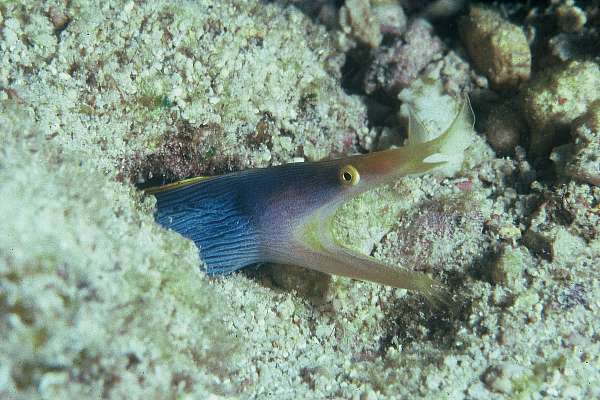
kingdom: Animalia
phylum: Chordata
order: Anguilliformes
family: Muraenidae
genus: Rhinomuraena
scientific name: Rhinomuraena quaesita
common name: Ribbon eel
